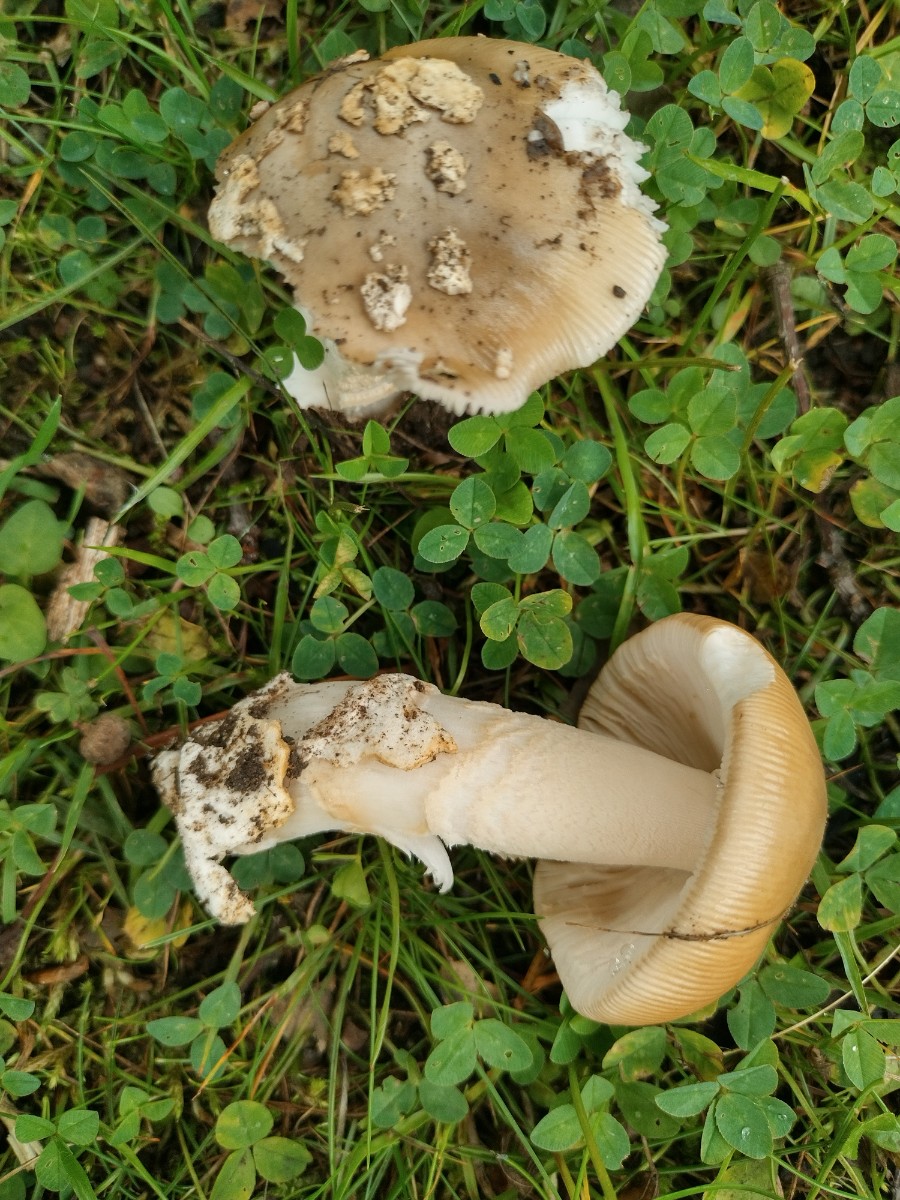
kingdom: Fungi
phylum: Basidiomycota
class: Agaricomycetes
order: Agaricales
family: Amanitaceae
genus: Amanita
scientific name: Amanita lividopallescens
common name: afblegende kam-fluesvamp
